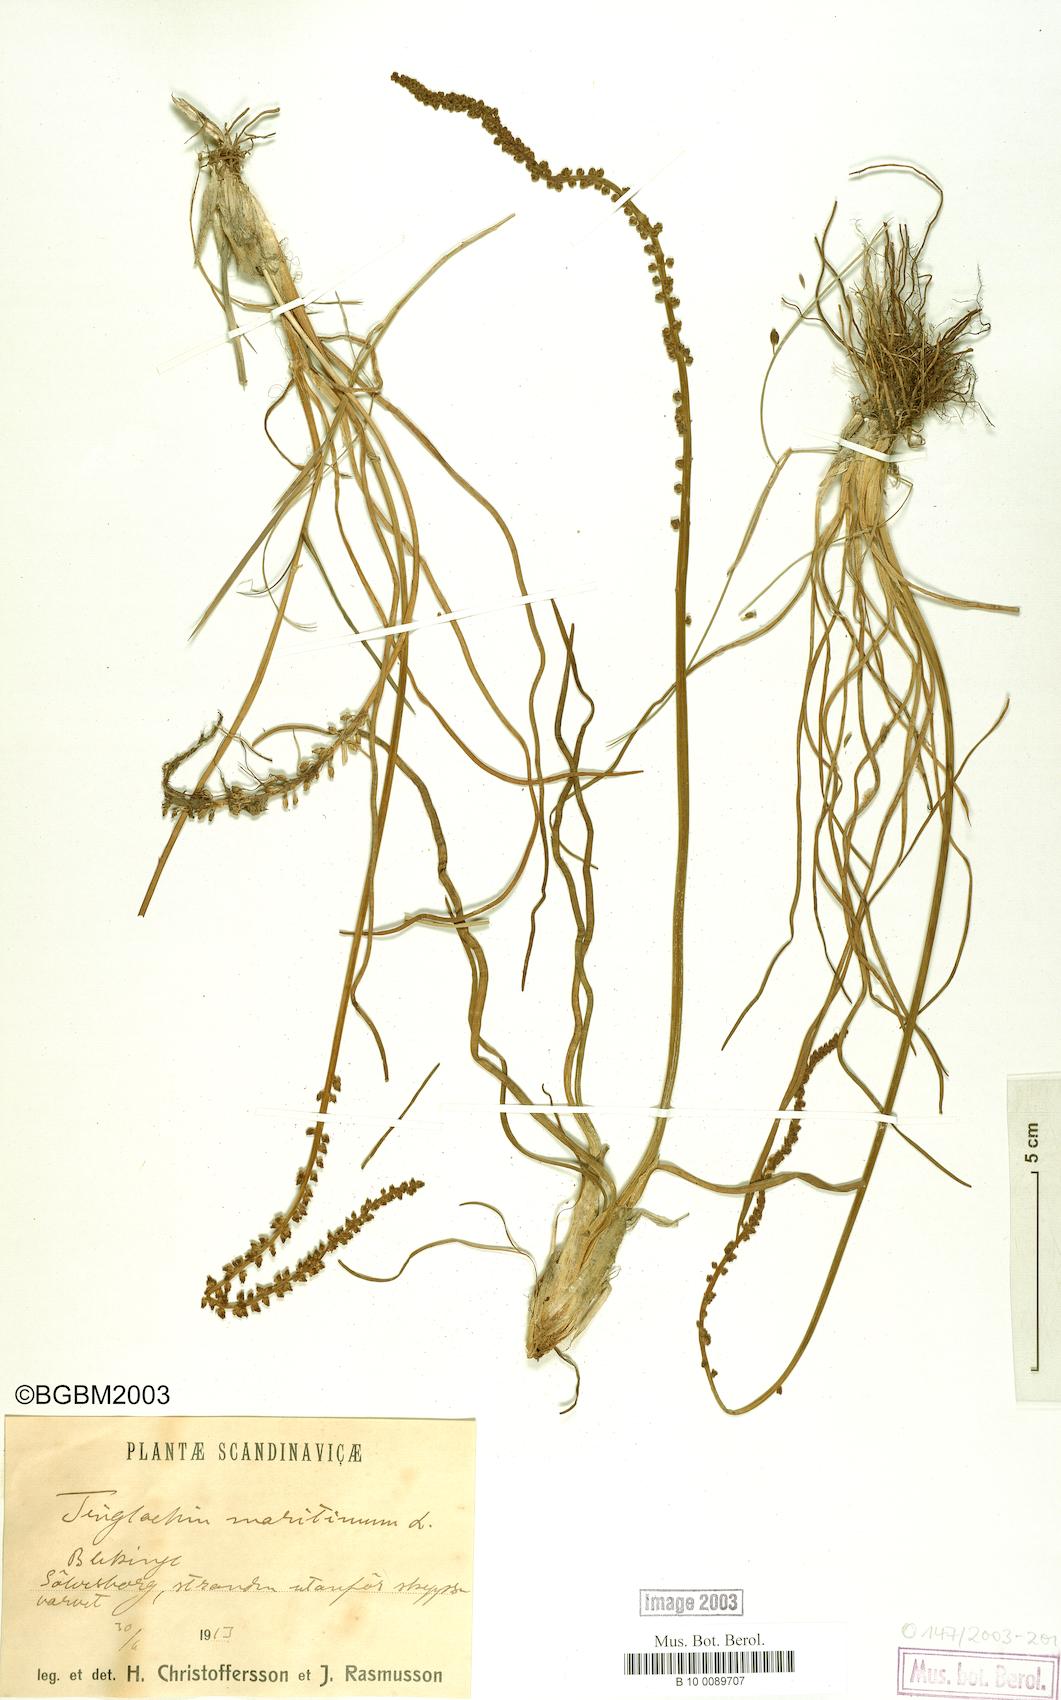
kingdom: Plantae
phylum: Tracheophyta
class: Liliopsida
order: Alismatales
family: Juncaginaceae
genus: Triglochin
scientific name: Triglochin maritima
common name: Sea arrowgrass
